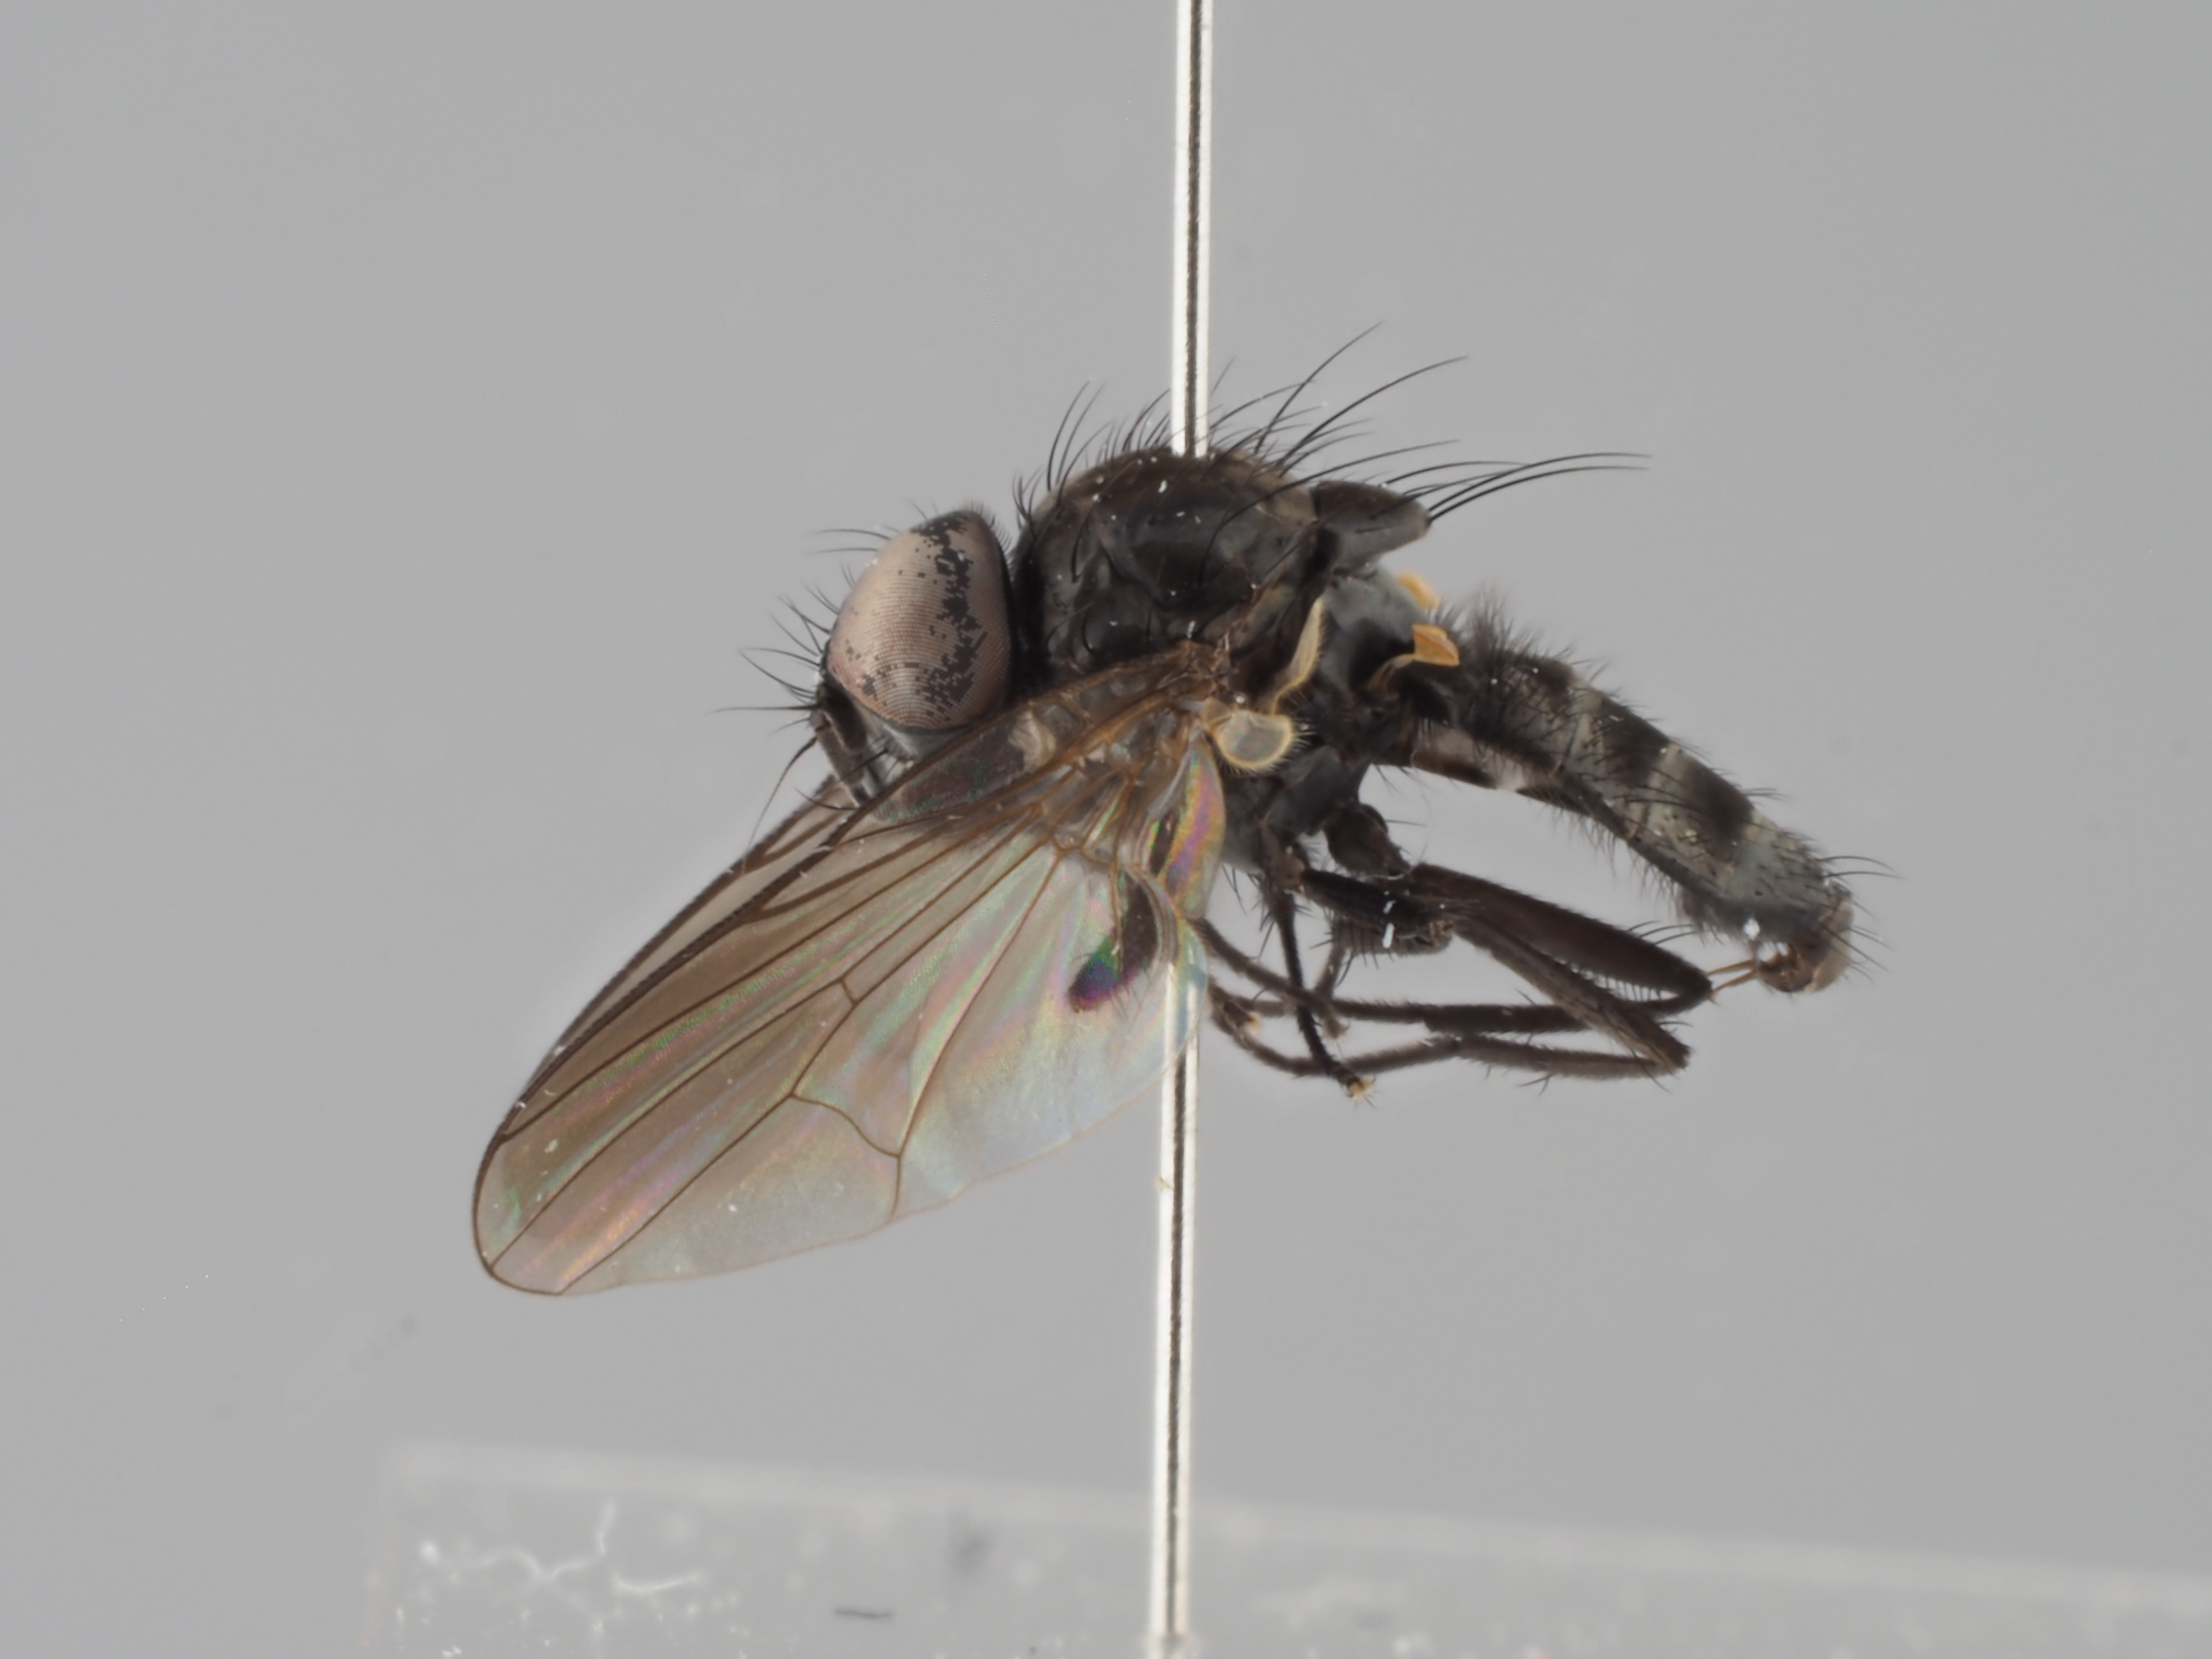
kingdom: Animalia
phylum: Arthropoda
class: Insecta
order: Diptera
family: Fanniidae
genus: Fannia
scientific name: Fannia umbrosa
